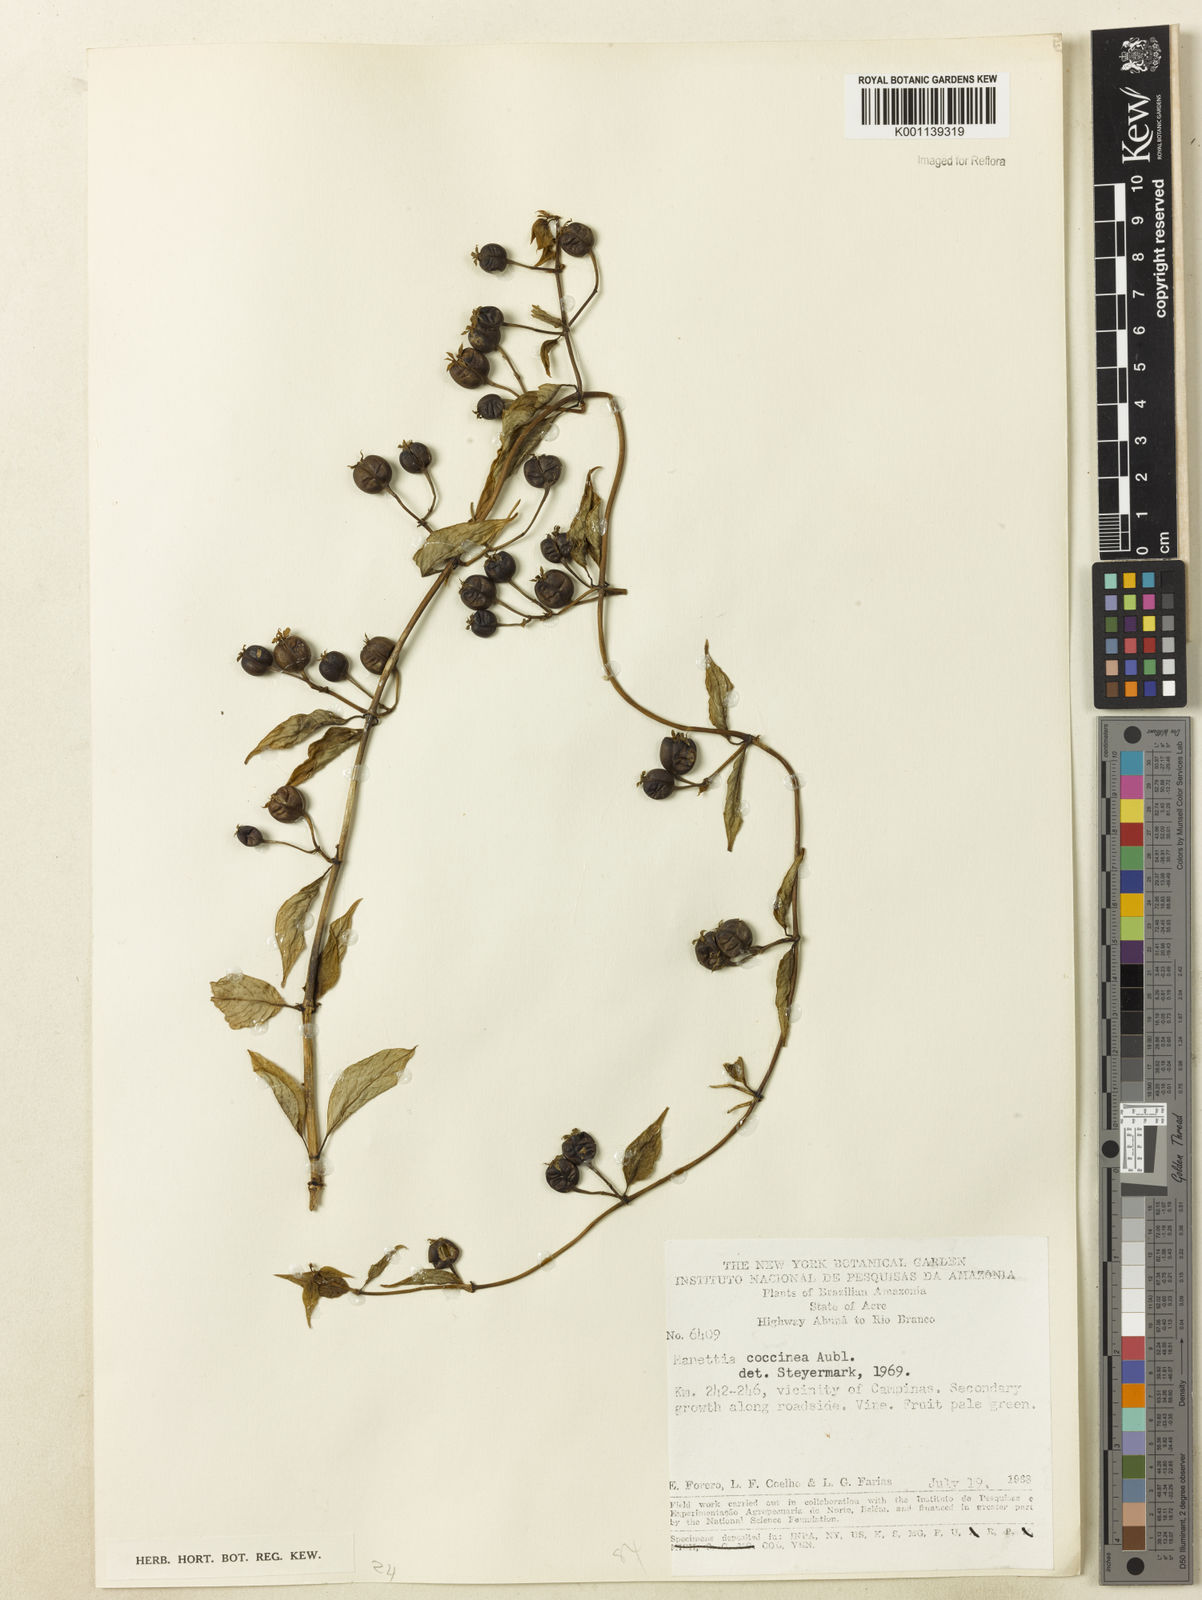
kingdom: Plantae
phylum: Tracheophyta
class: Magnoliopsida
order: Gentianales
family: Rubiaceae
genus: Manettia
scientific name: Manettia
